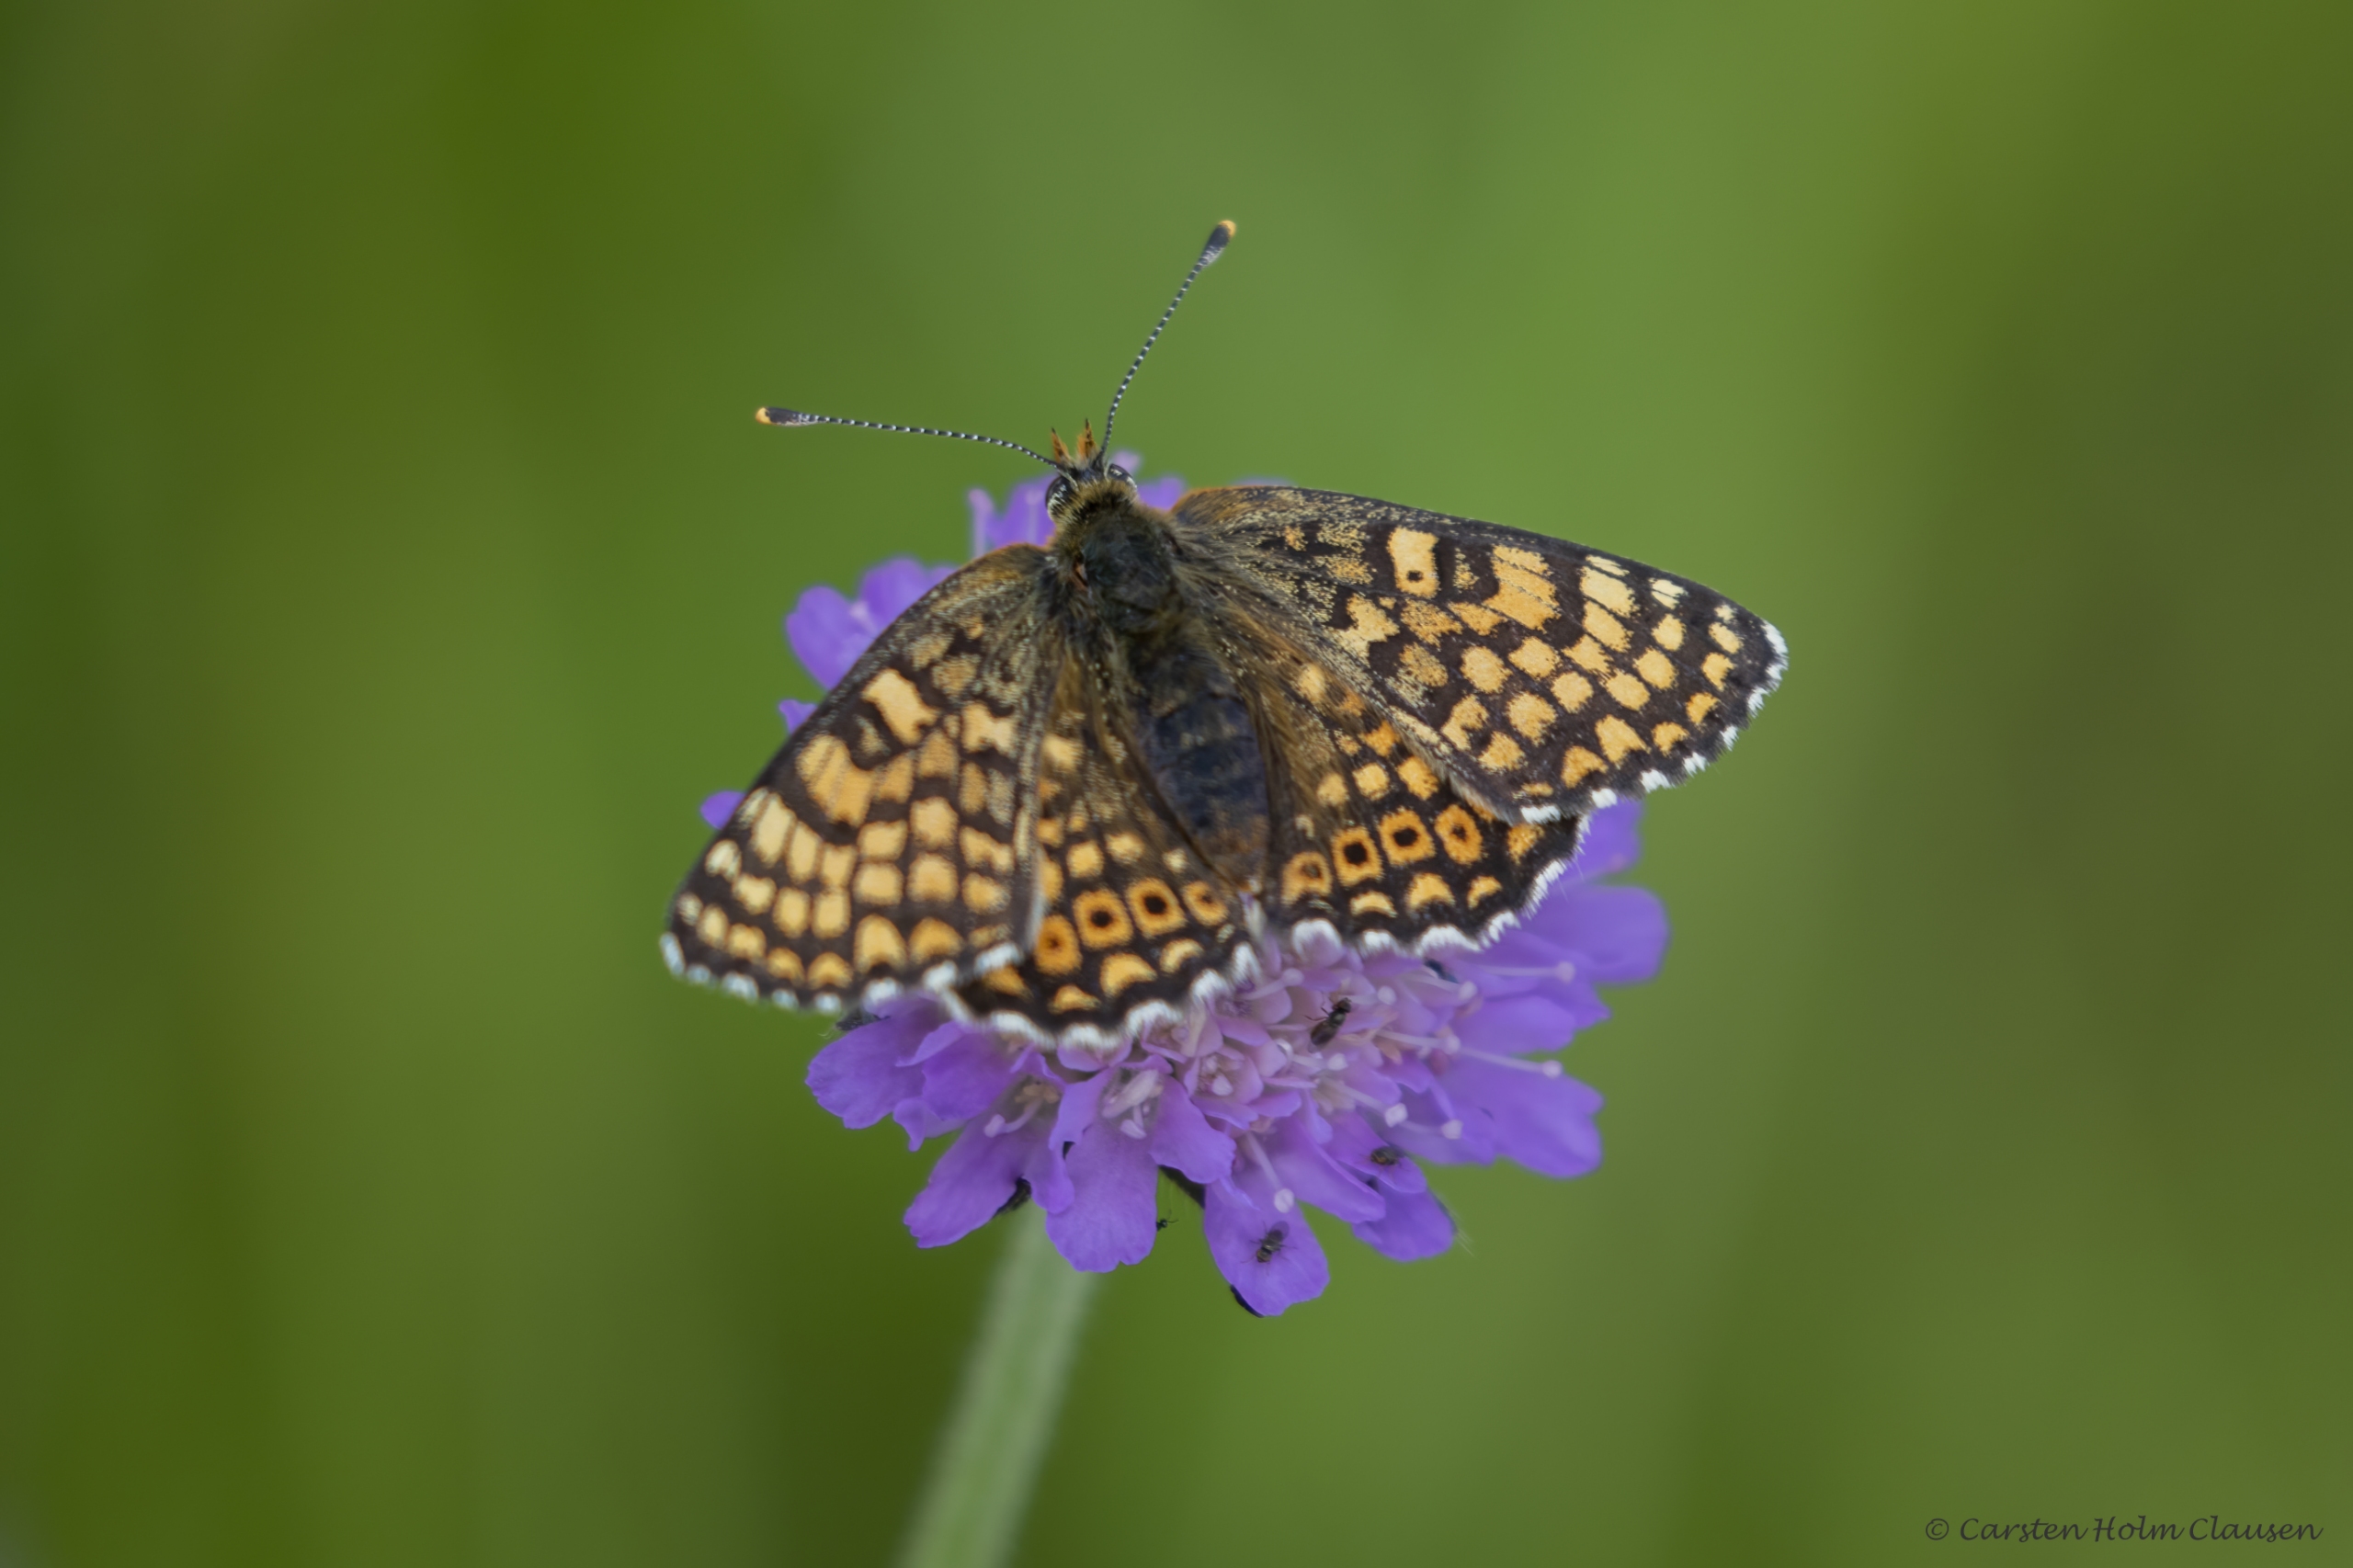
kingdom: Animalia
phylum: Arthropoda
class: Insecta
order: Lepidoptera
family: Nymphalidae
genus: Melitaea
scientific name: Melitaea cinxia
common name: Okkergul pletvinge
